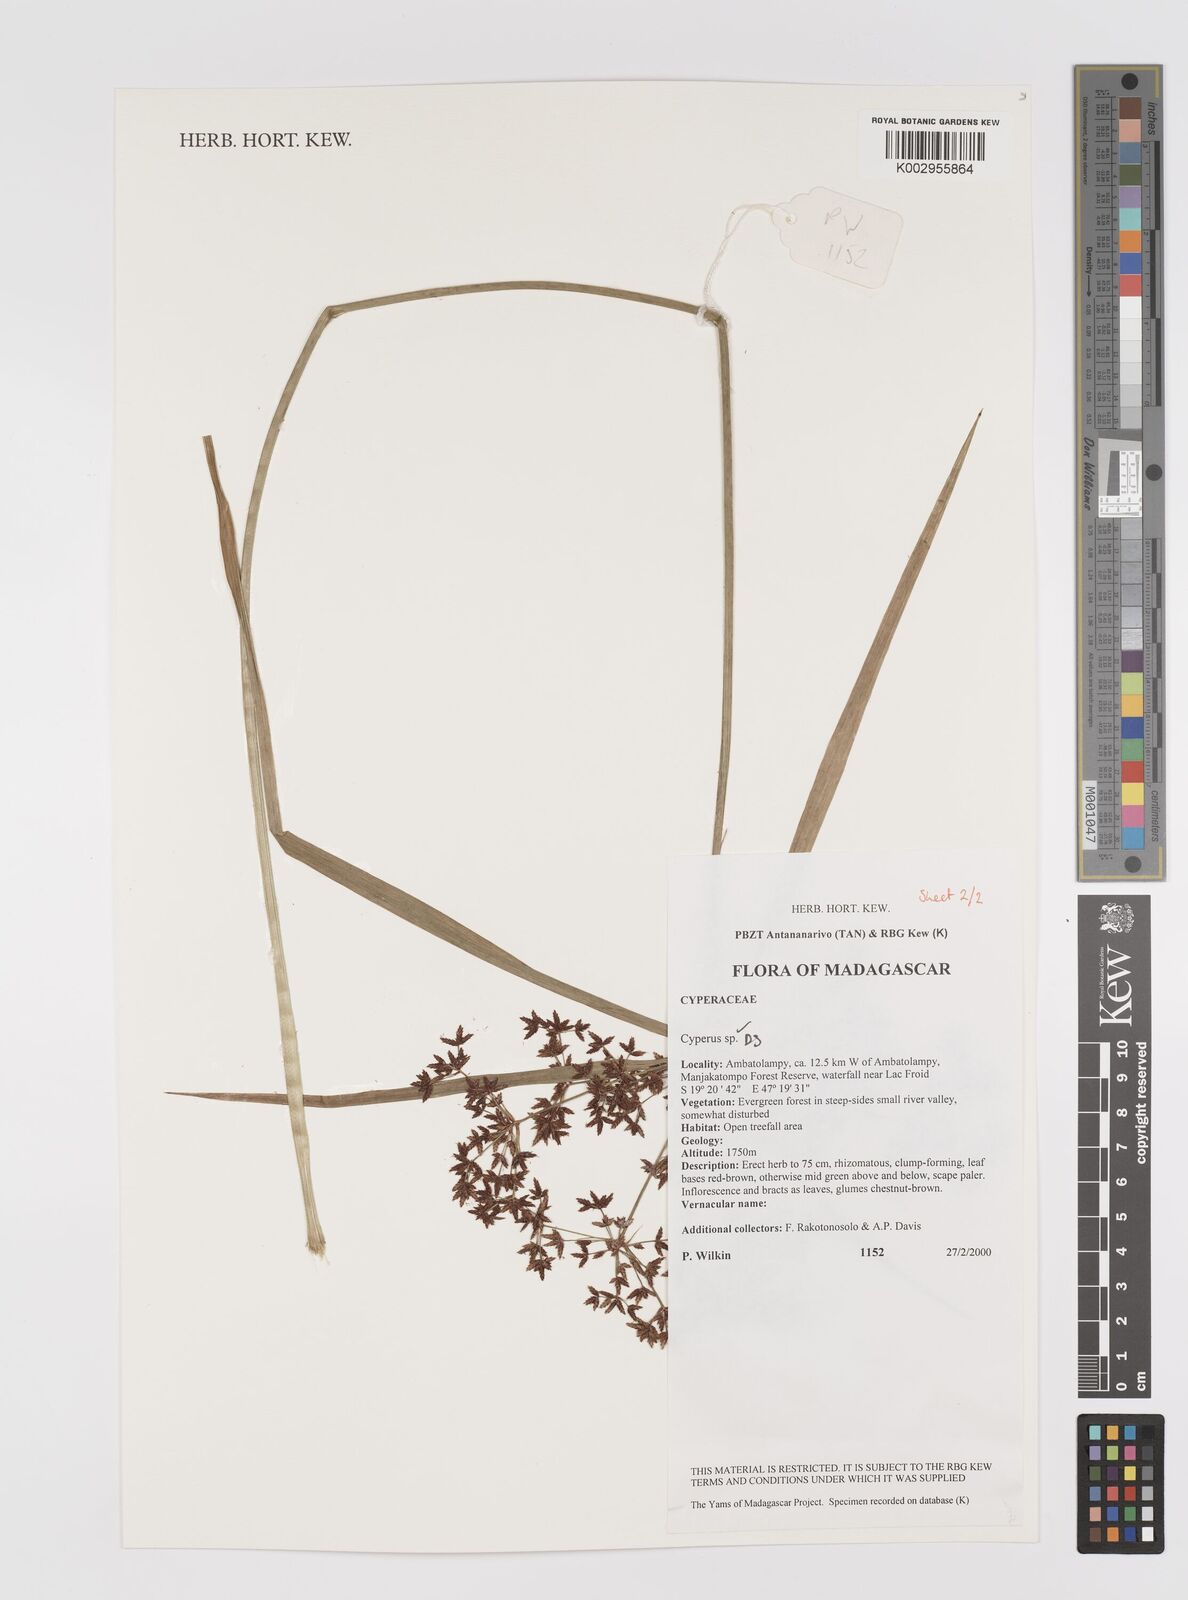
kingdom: Plantae
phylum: Tracheophyta
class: Liliopsida
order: Poales
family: Cyperaceae
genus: Cyperus
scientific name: Cyperus
